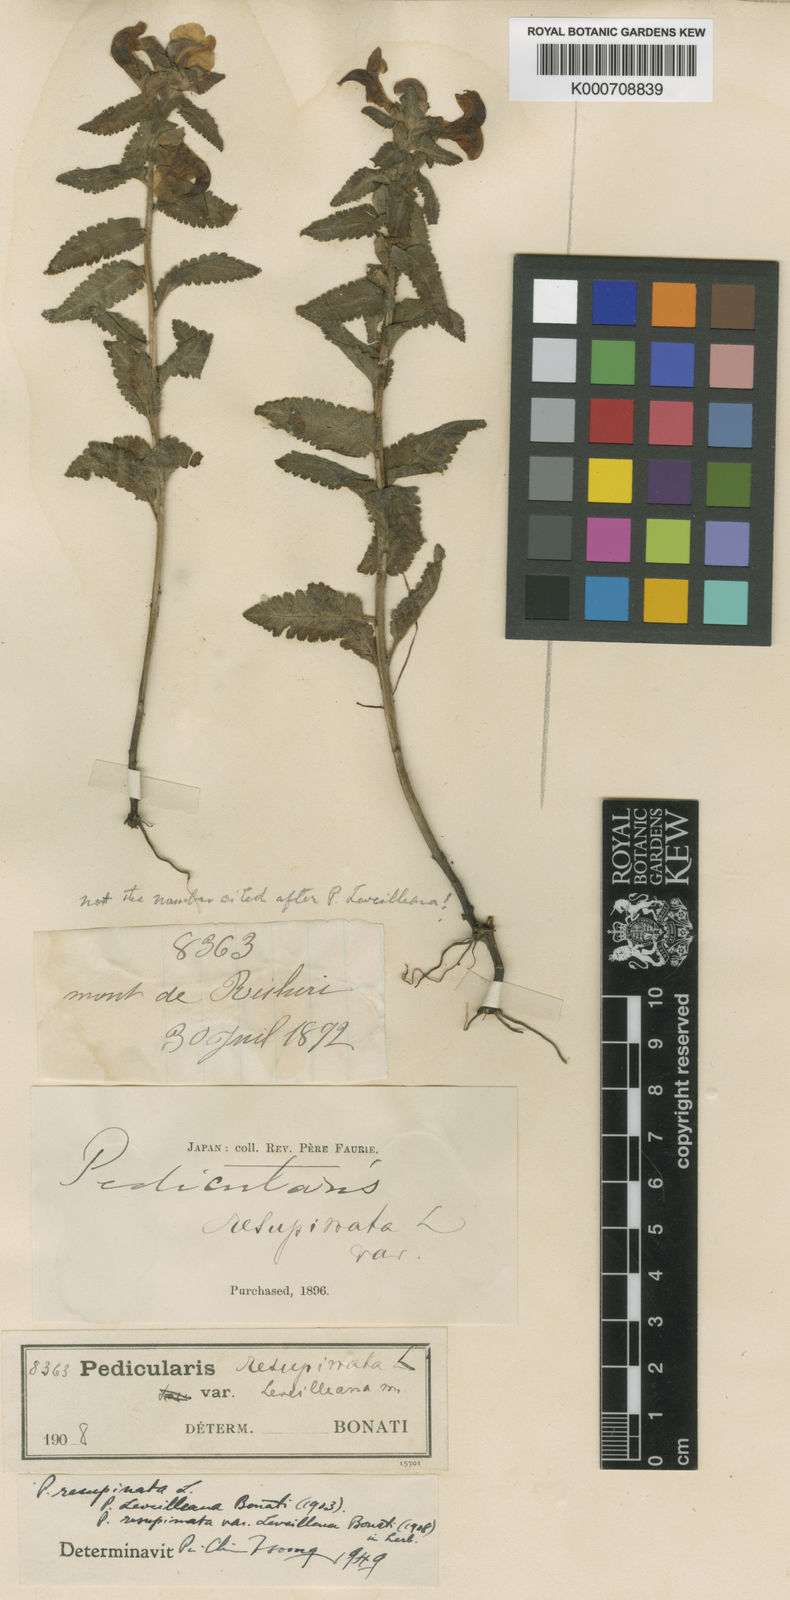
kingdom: Plantae
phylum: Tracheophyta
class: Magnoliopsida
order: Lamiales
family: Orobanchaceae
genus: Pedicularis
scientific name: Pedicularis resupinata
